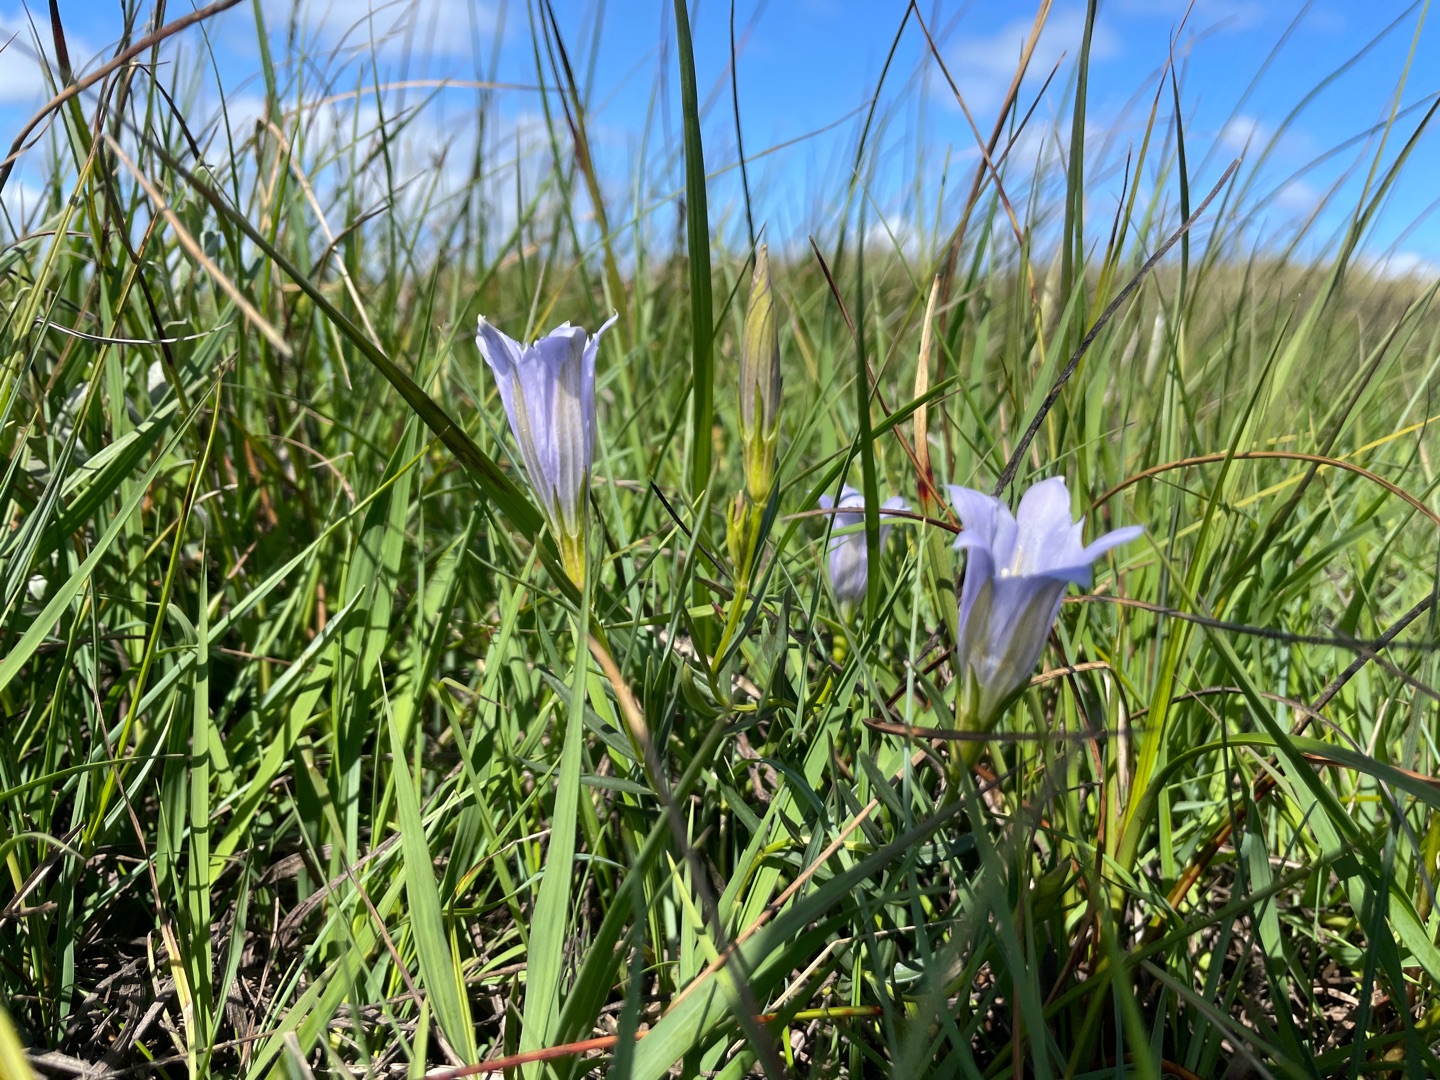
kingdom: Plantae
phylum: Tracheophyta
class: Magnoliopsida
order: Gentianales
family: Gentianaceae
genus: Gentiana
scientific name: Gentiana pneumonanthe
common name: Klokke-ensian
